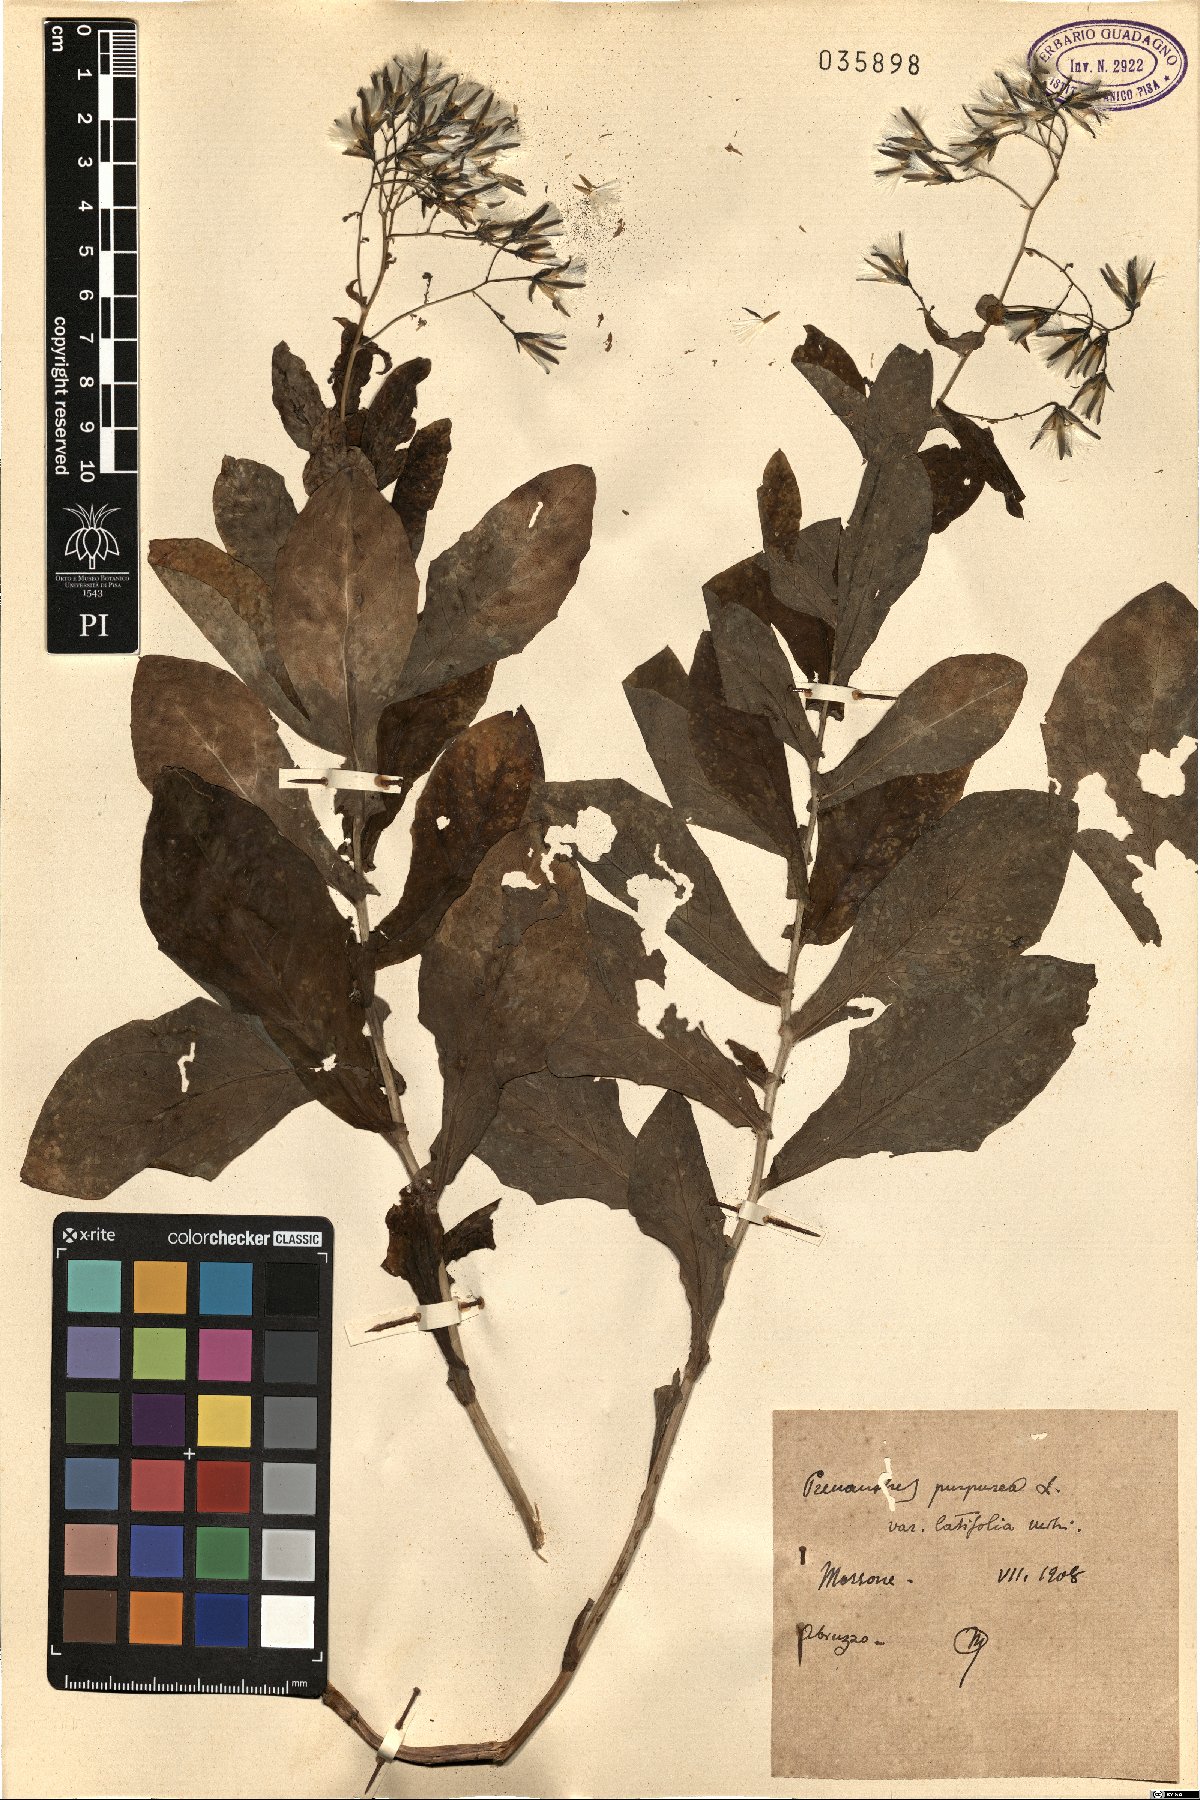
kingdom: Plantae
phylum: Tracheophyta
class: Magnoliopsida
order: Asterales
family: Asteraceae
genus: Prenanthes
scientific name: Prenanthes purpurea
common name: Purple lettuce
